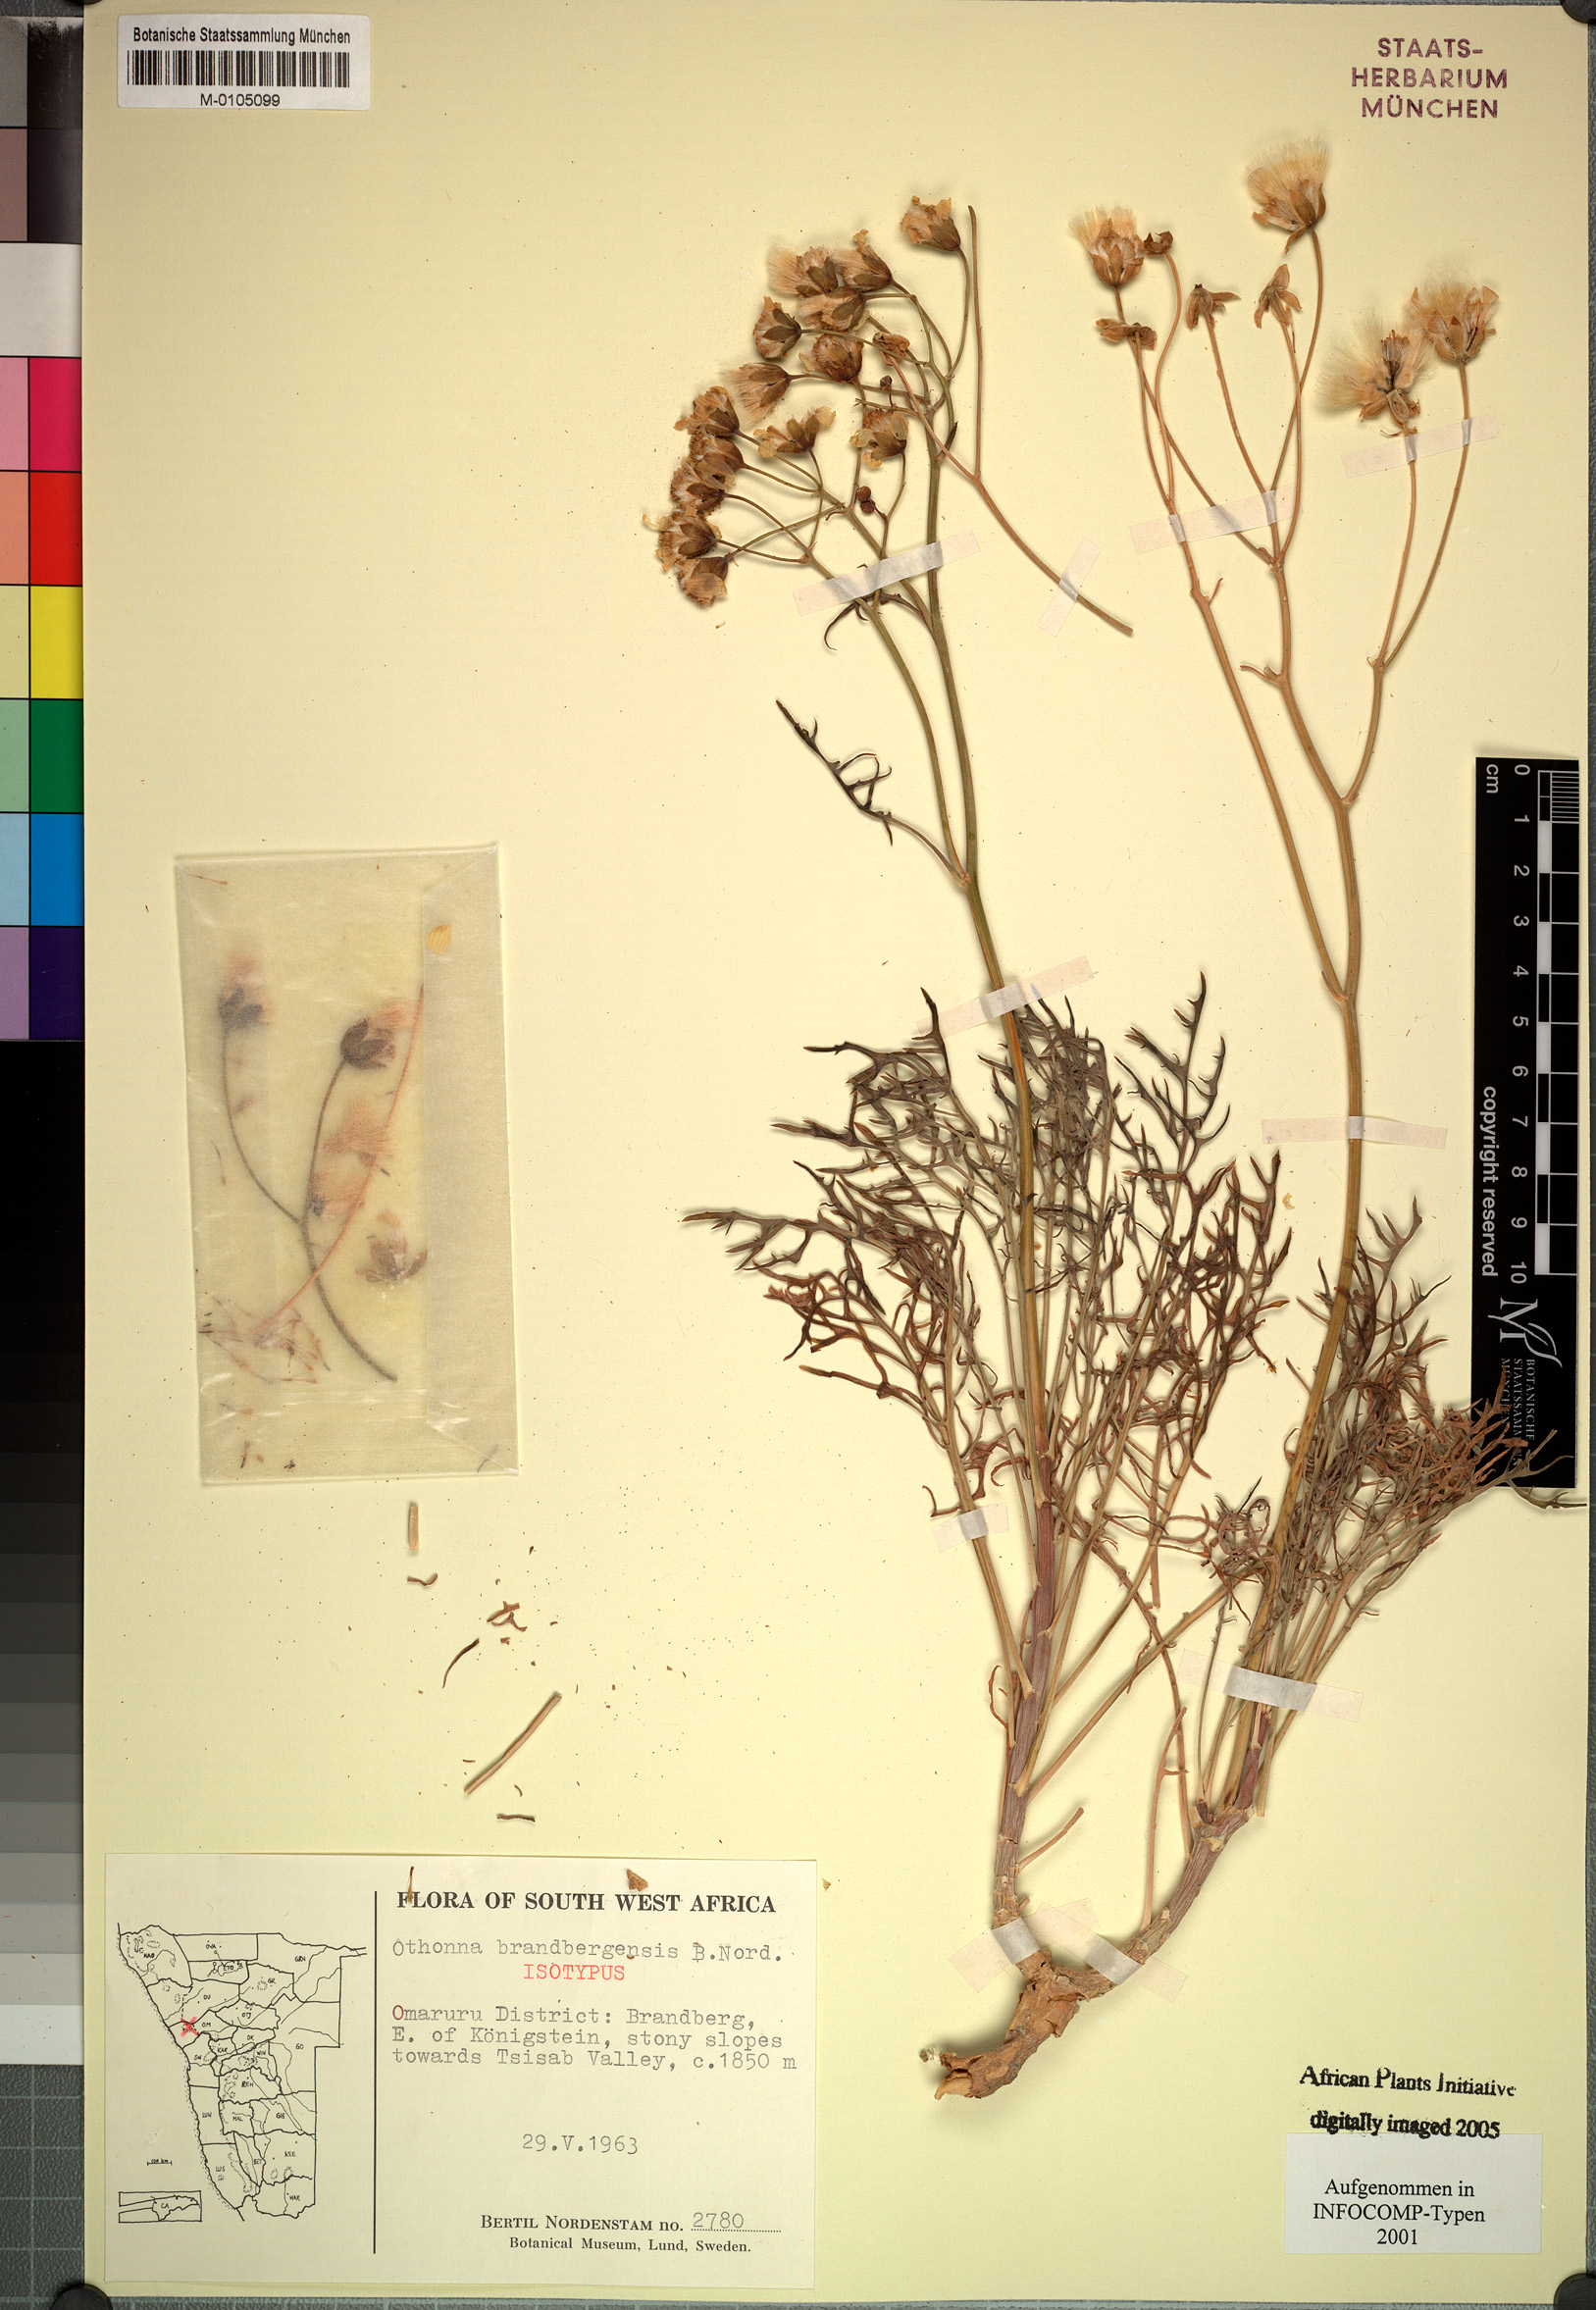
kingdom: Plantae
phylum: Tracheophyta
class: Magnoliopsida
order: Asterales
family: Asteraceae
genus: Othonna
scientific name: Othonna brandbergensis
